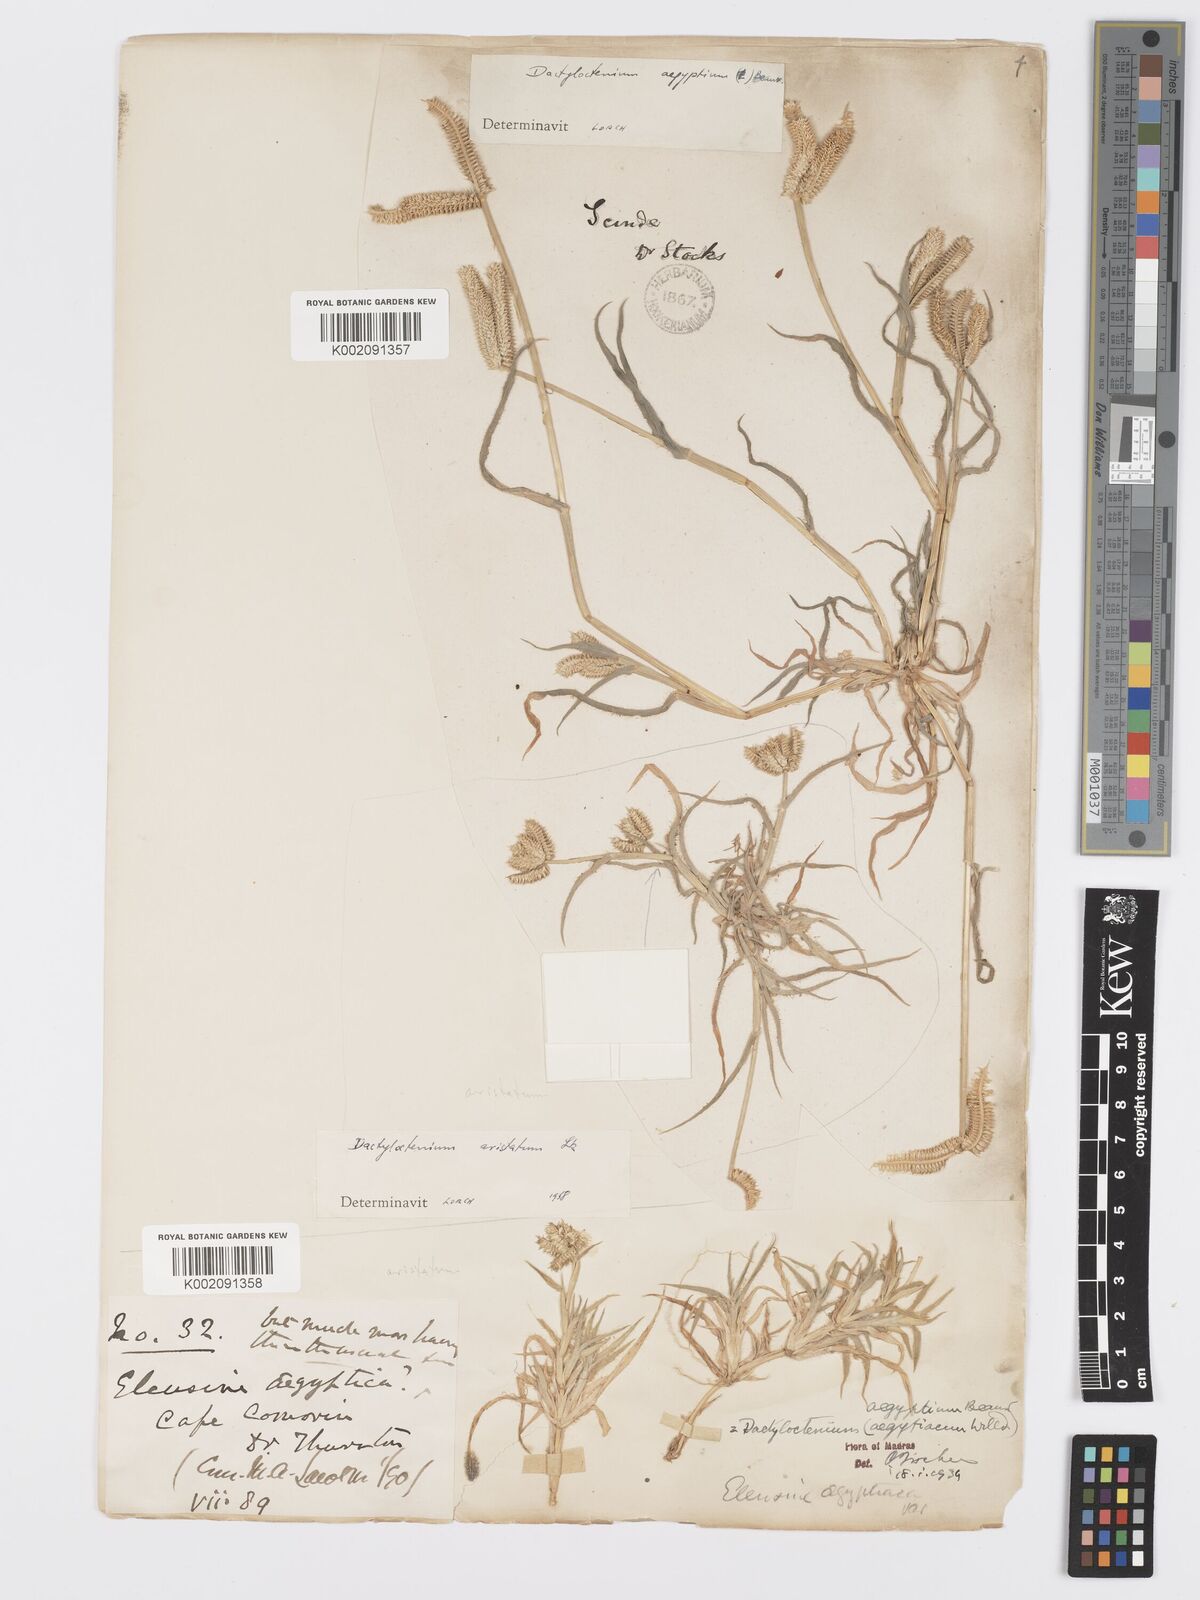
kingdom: Plantae
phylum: Tracheophyta
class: Liliopsida
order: Poales
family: Poaceae
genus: Dactyloctenium
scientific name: Dactyloctenium aristatum
